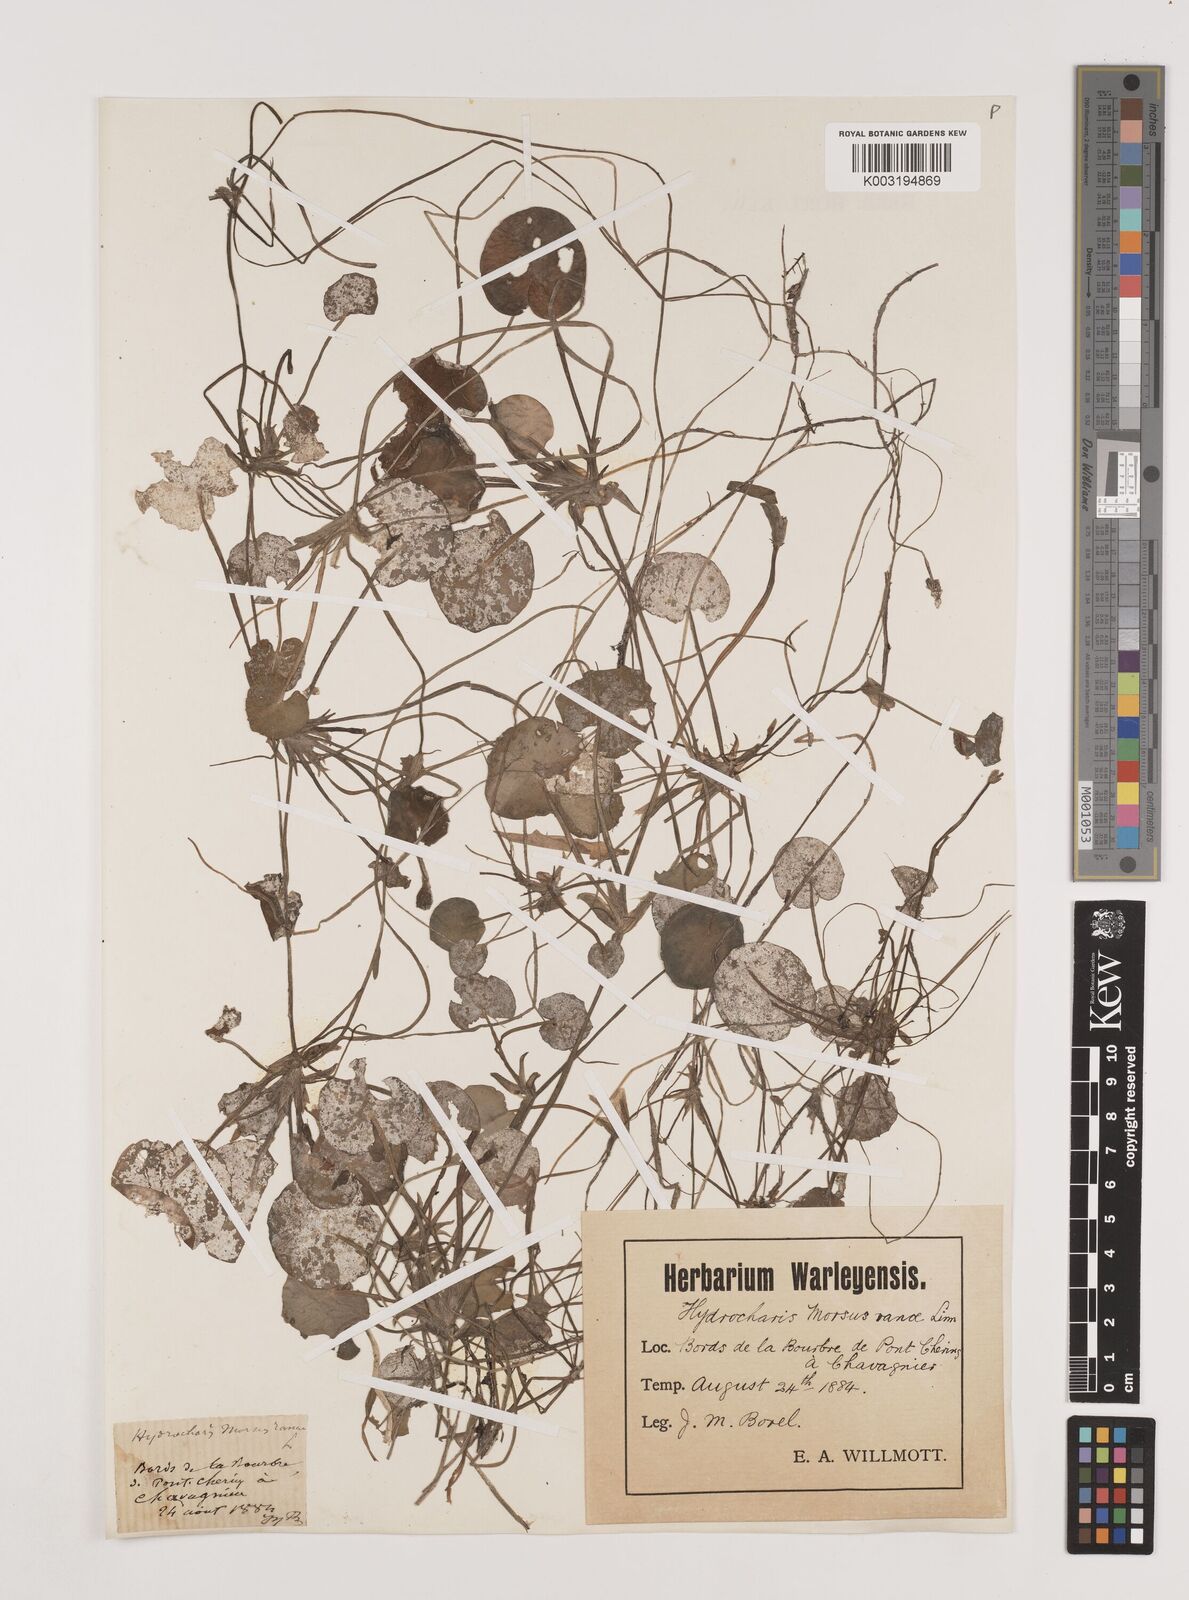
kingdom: Plantae
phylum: Tracheophyta
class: Liliopsida
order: Alismatales
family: Hydrocharitaceae
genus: Hydrocharis
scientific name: Hydrocharis morsus-ranae
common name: Frogbit
